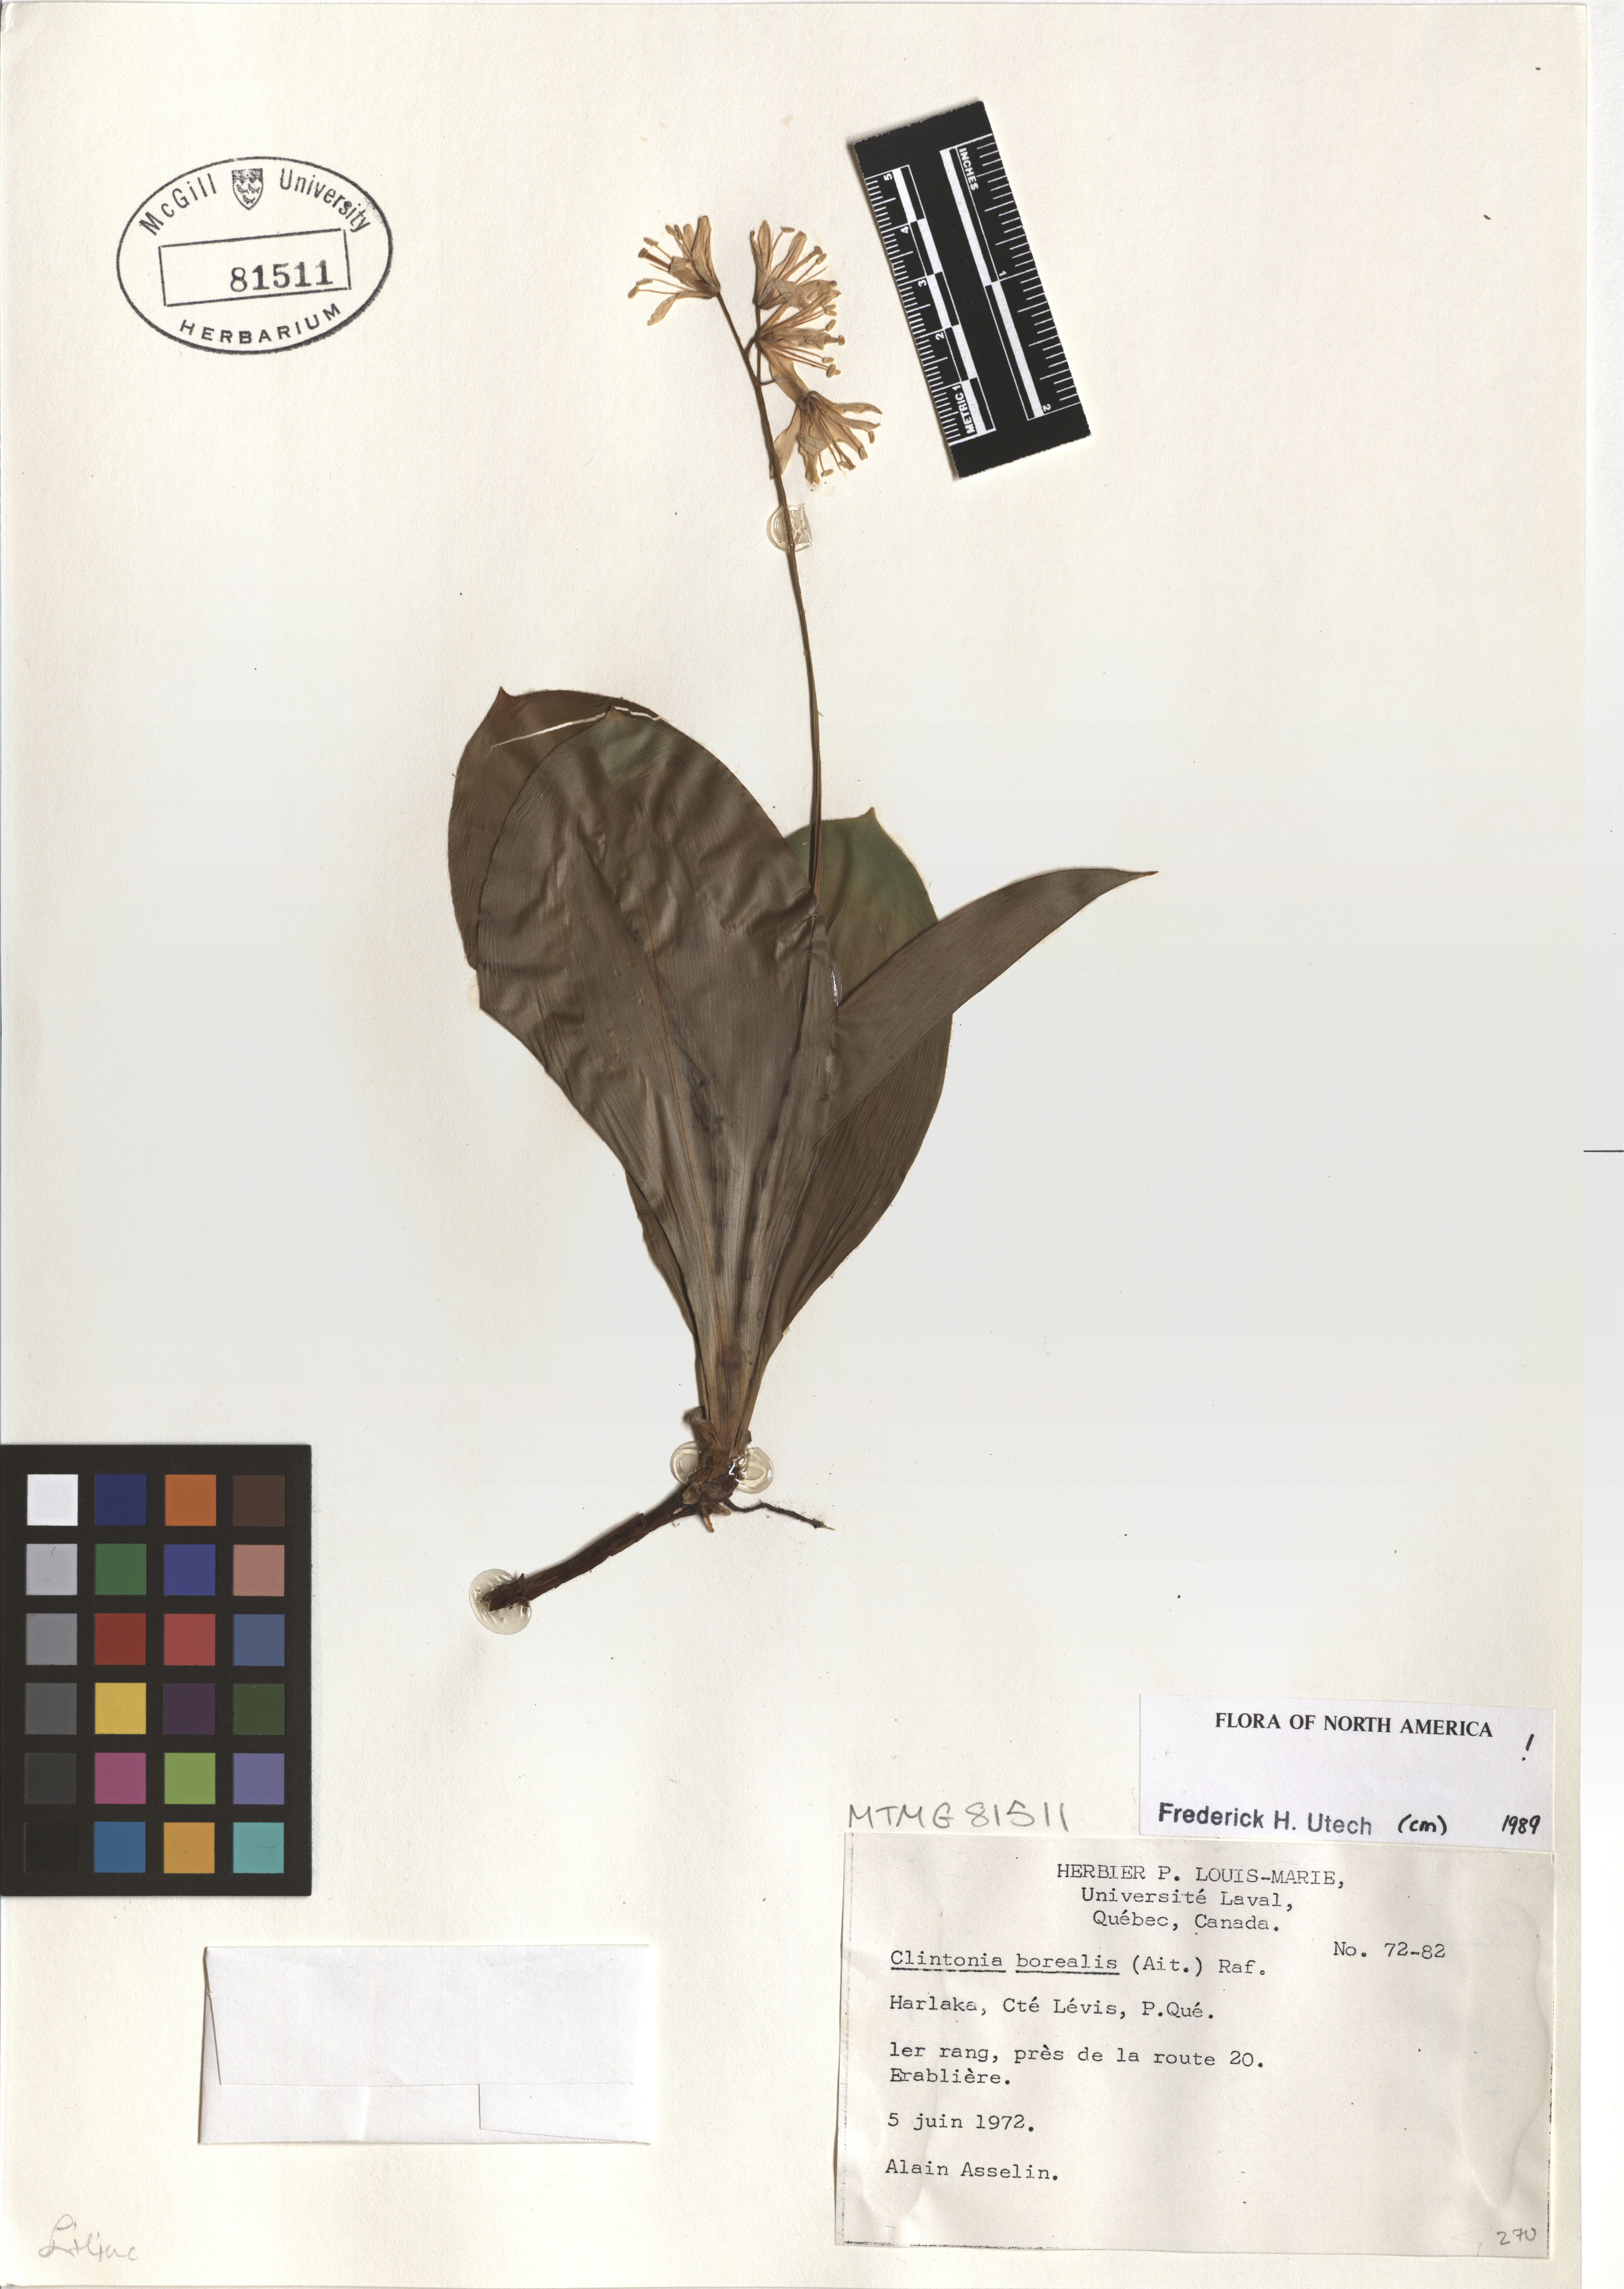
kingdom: Plantae
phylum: Tracheophyta
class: Liliopsida
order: Liliales
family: Liliaceae
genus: Clintonia
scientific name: Clintonia borealis
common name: Yellow clintonia
